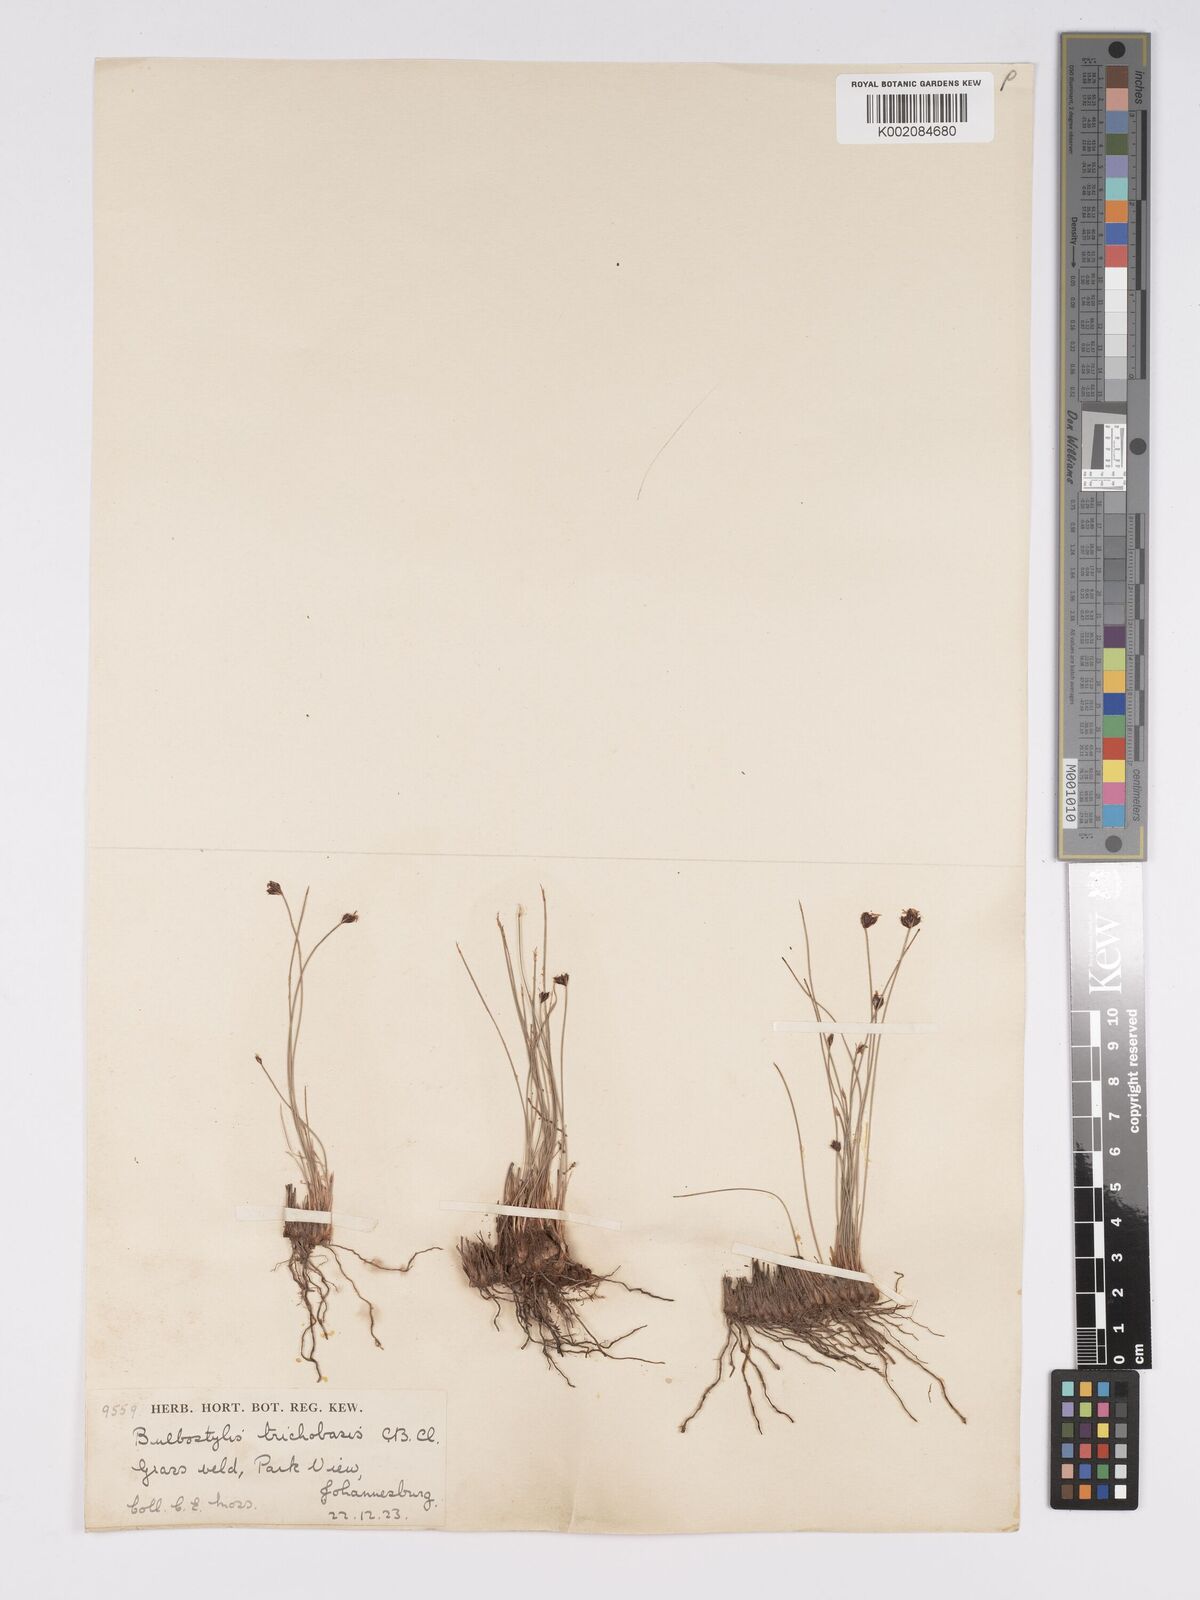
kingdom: Plantae
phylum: Tracheophyta
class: Liliopsida
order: Poales
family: Cyperaceae
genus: Bulbostylis
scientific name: Bulbostylis oritrephes
